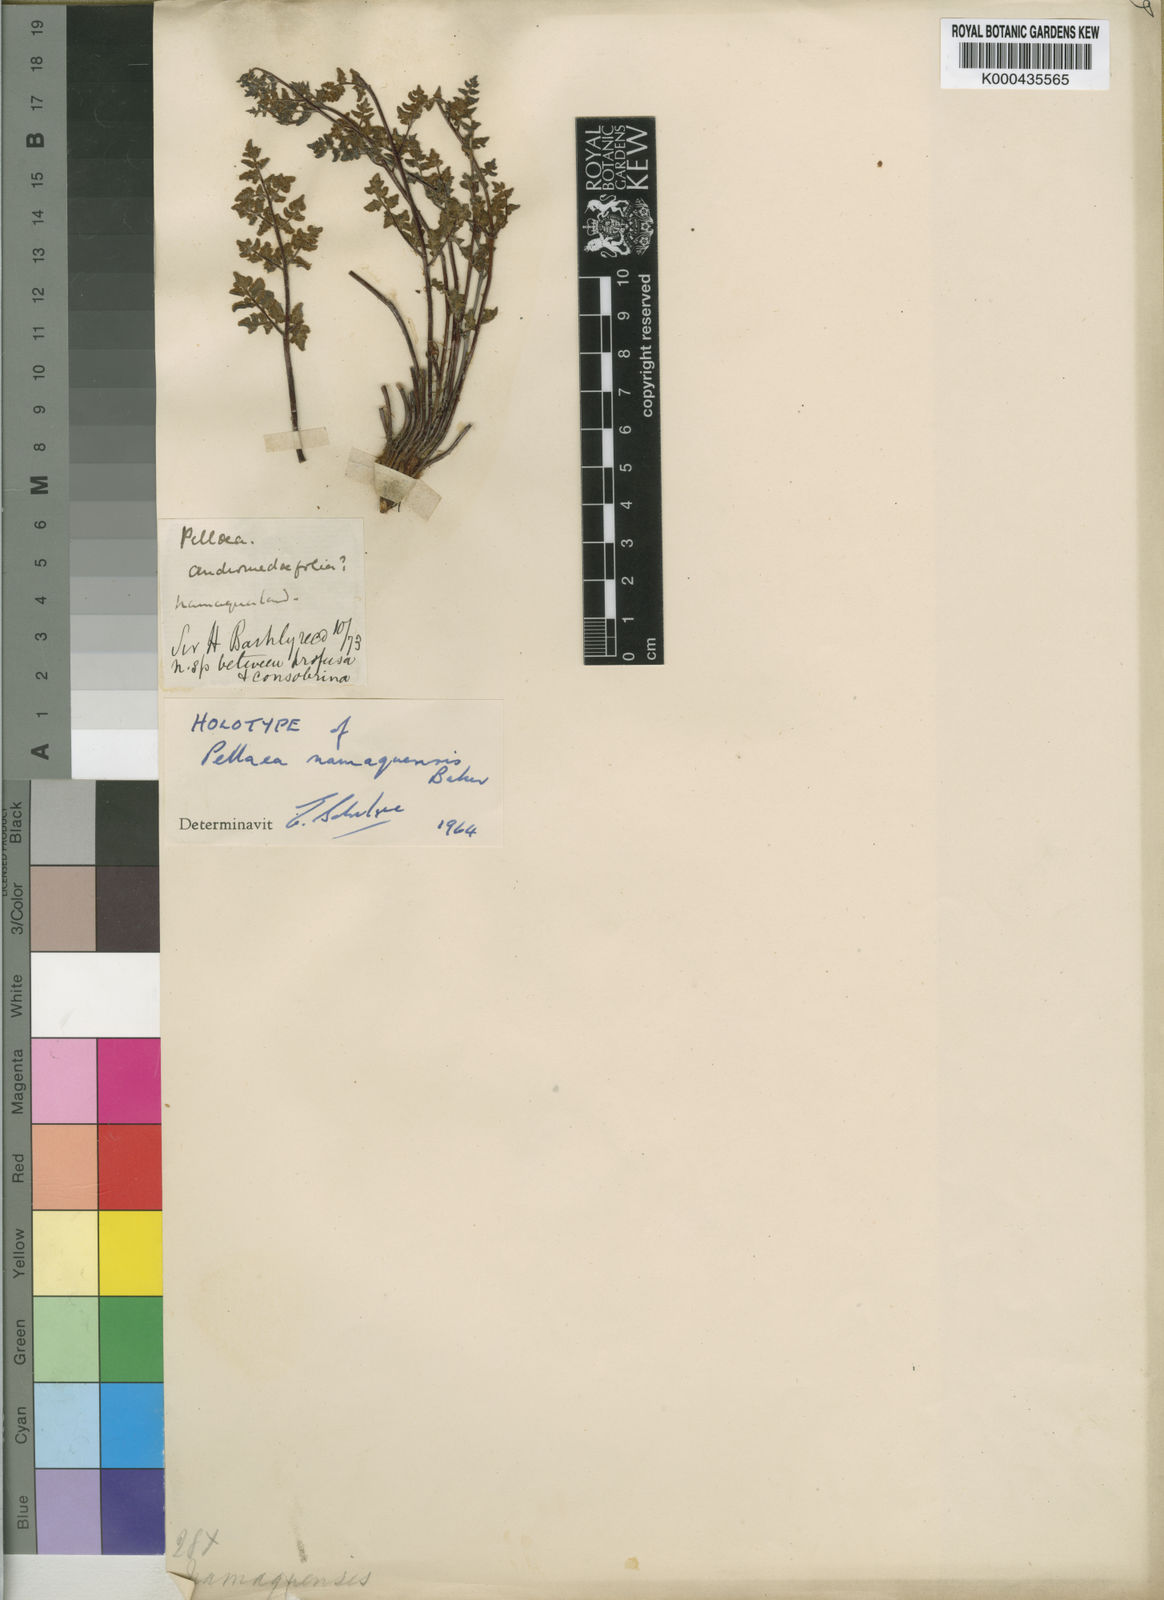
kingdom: Plantae
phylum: Tracheophyta
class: Polypodiopsida
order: Polypodiales
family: Pteridaceae
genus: Cheilanthes
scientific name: Cheilanthes namaquensis
